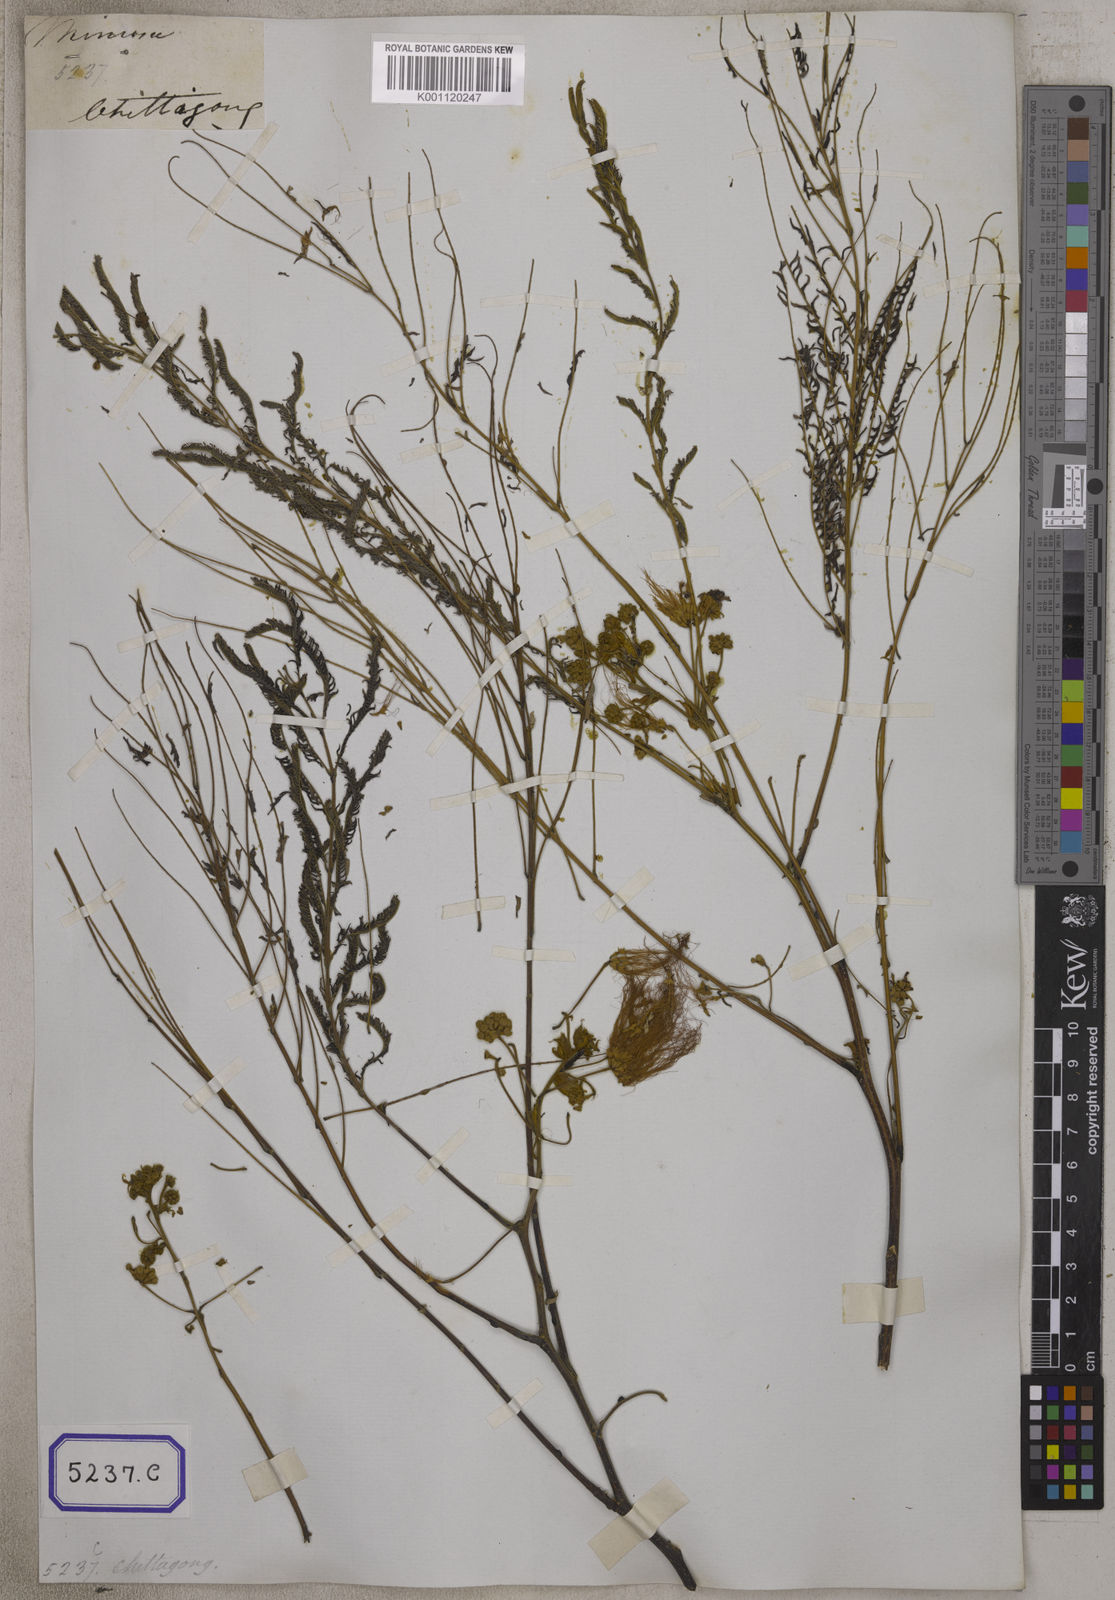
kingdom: Plantae
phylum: Tracheophyta
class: Magnoliopsida
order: Fabales
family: Fabaceae
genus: Albizia
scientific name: Albizia chinensis
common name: Chinese albizia
